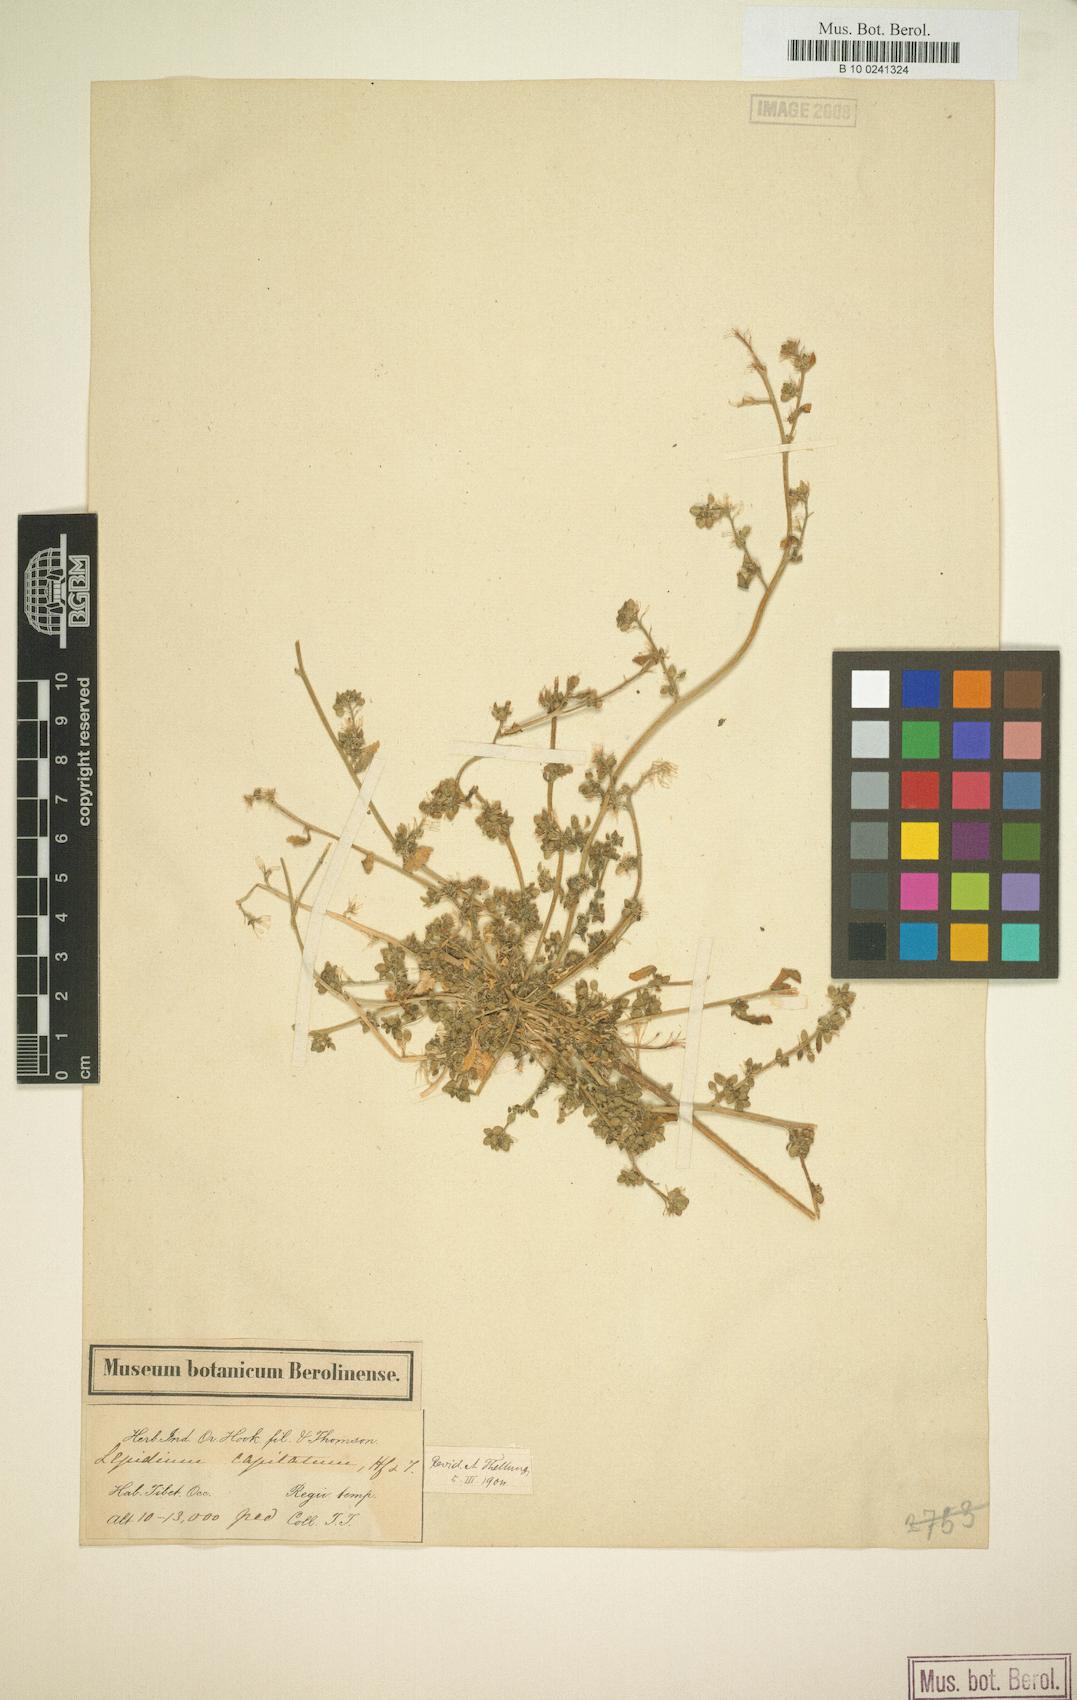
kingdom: Plantae
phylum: Tracheophyta
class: Magnoliopsida
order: Brassicales
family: Brassicaceae
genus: Lepidium
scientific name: Lepidium capitatum
